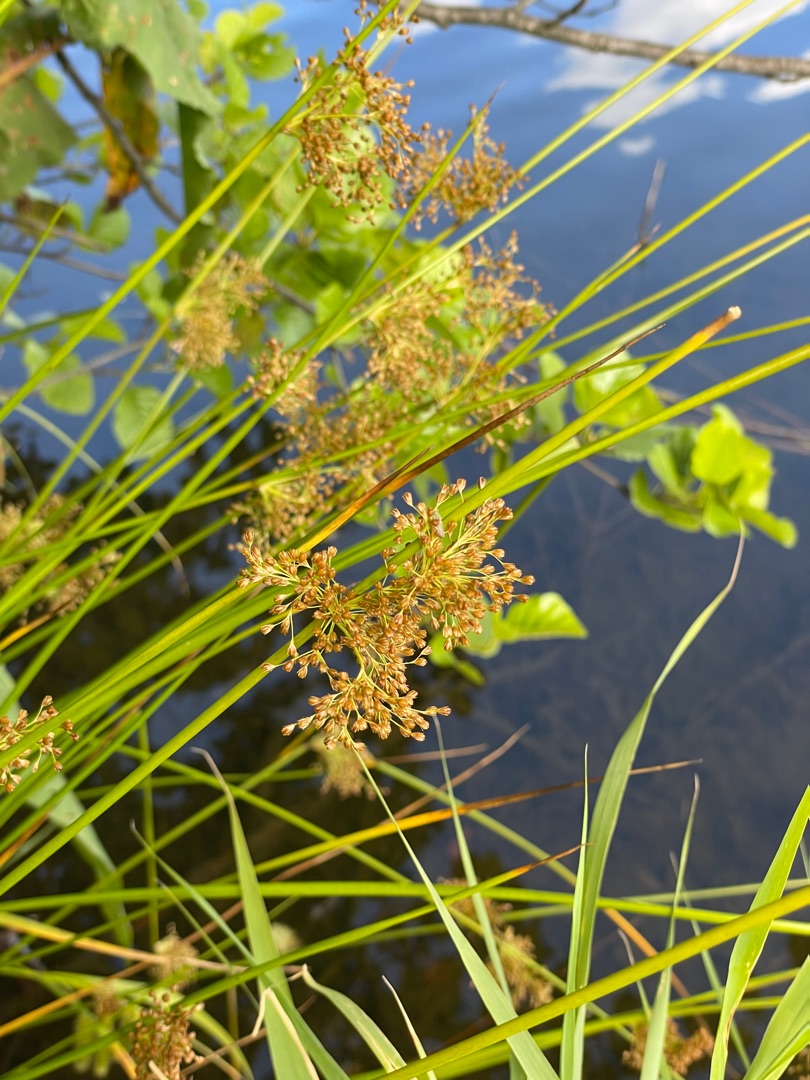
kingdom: Plantae
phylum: Tracheophyta
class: Liliopsida
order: Poales
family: Juncaceae
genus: Juncus
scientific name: Juncus effusus
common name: Lyse-siv
